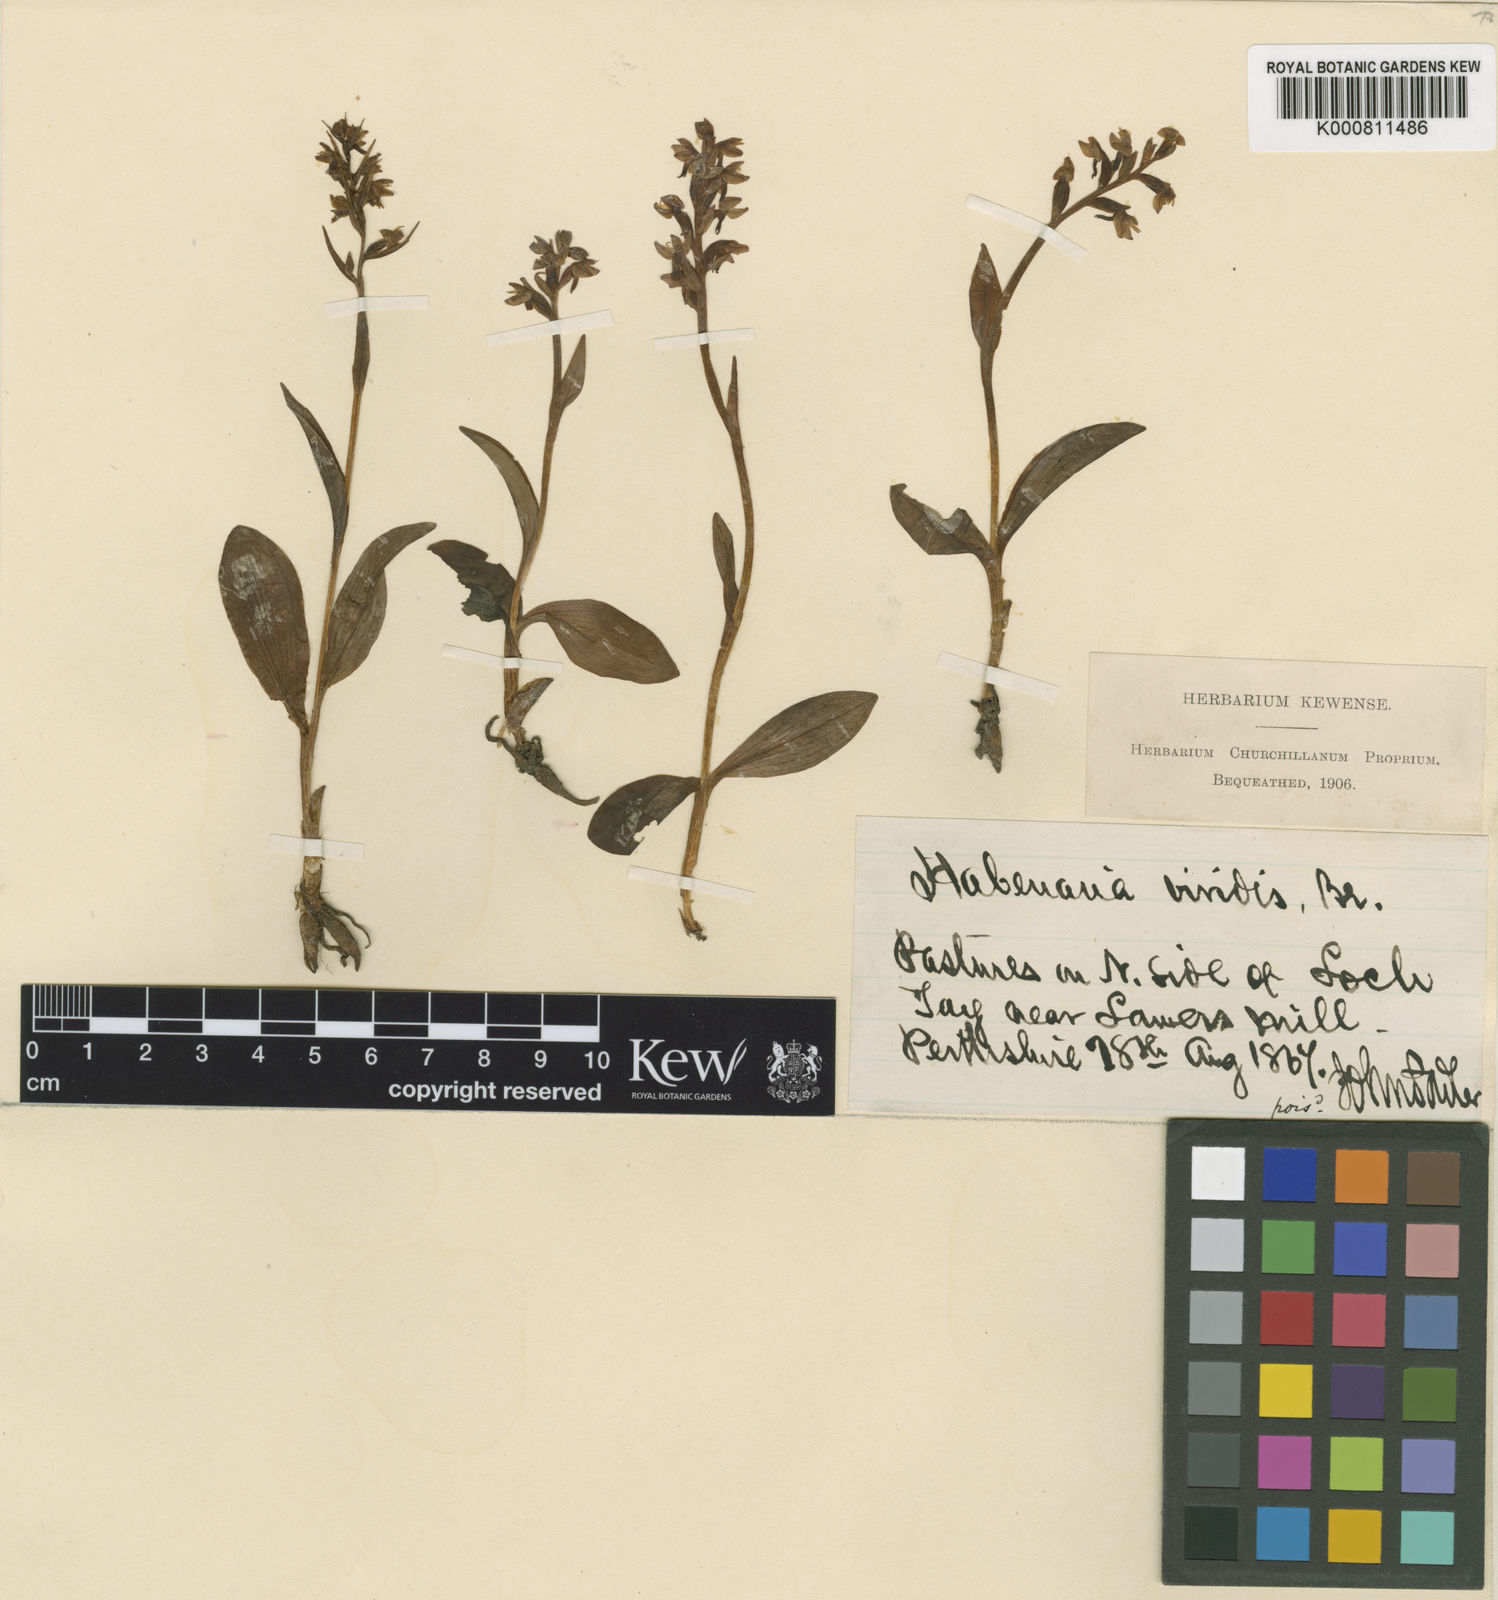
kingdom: Plantae
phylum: Tracheophyta
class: Liliopsida
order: Asparagales
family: Orchidaceae
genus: Dactylorhiza
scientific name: Dactylorhiza viridis
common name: Longbract frog orchid
